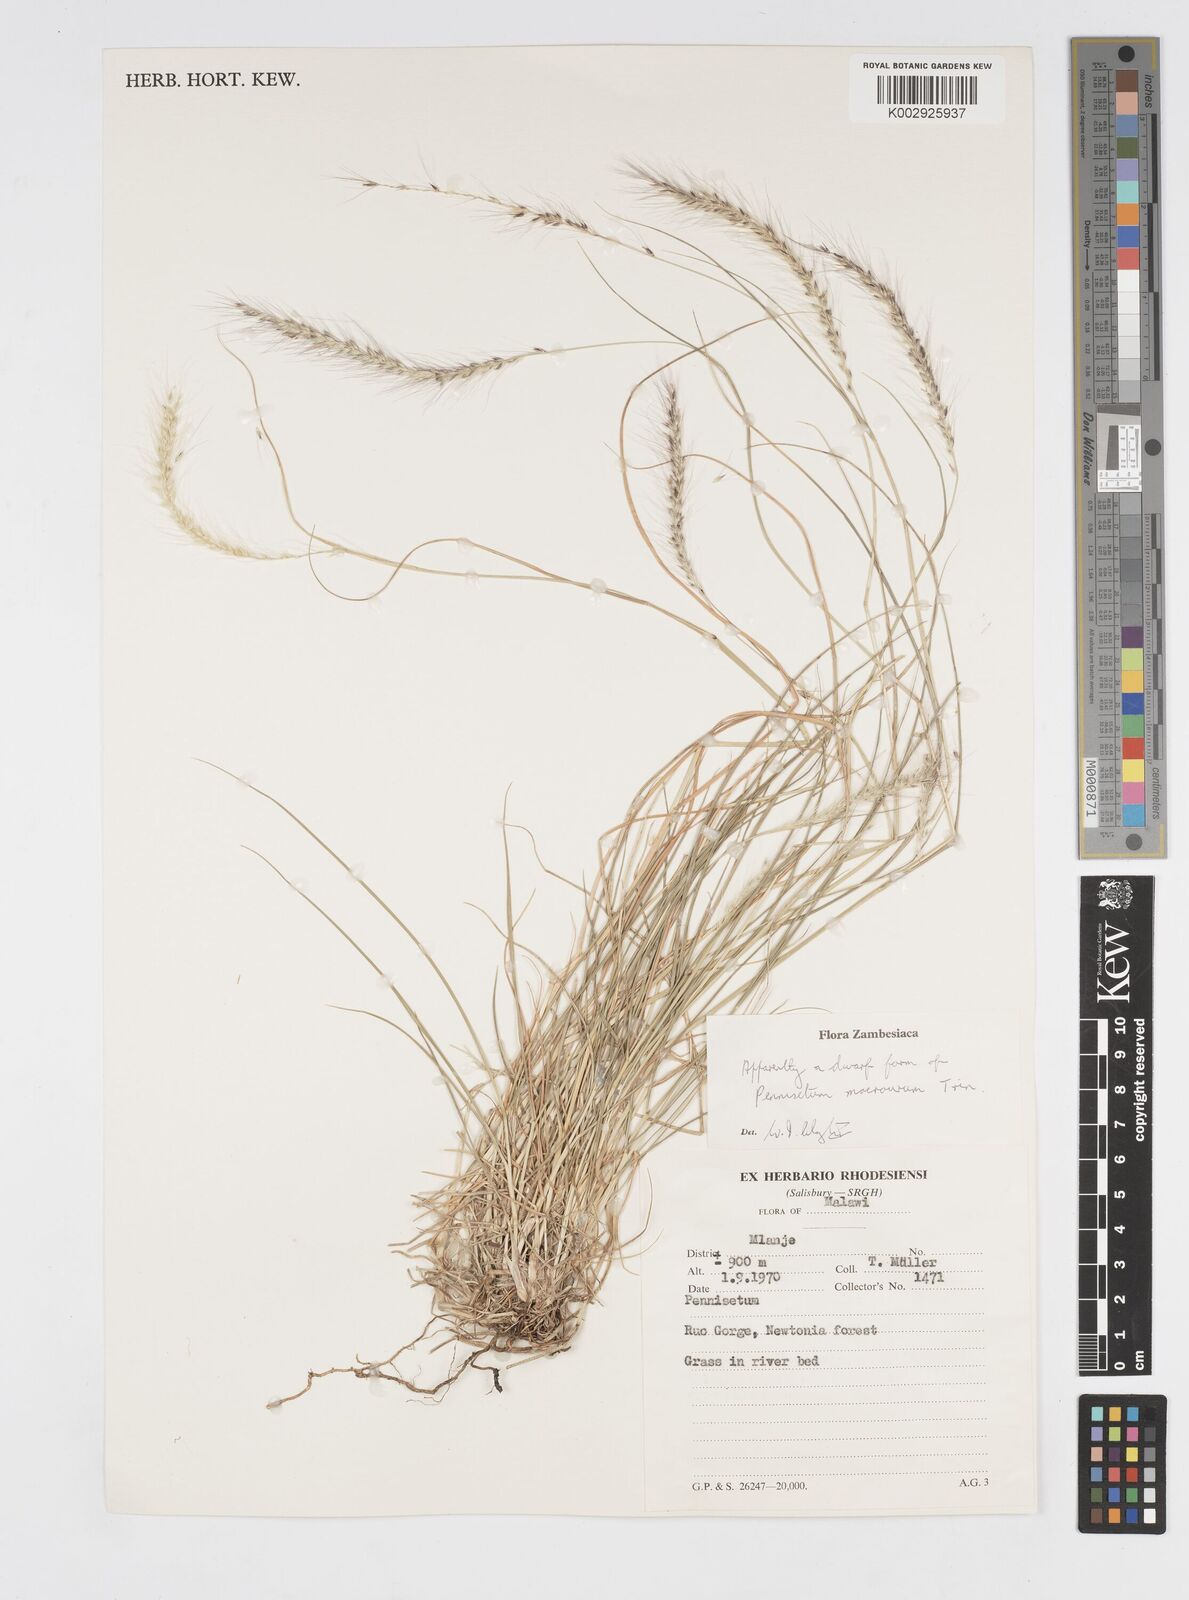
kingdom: Plantae
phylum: Tracheophyta
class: Liliopsida
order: Poales
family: Poaceae
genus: Cenchrus
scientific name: Cenchrus caudatus
